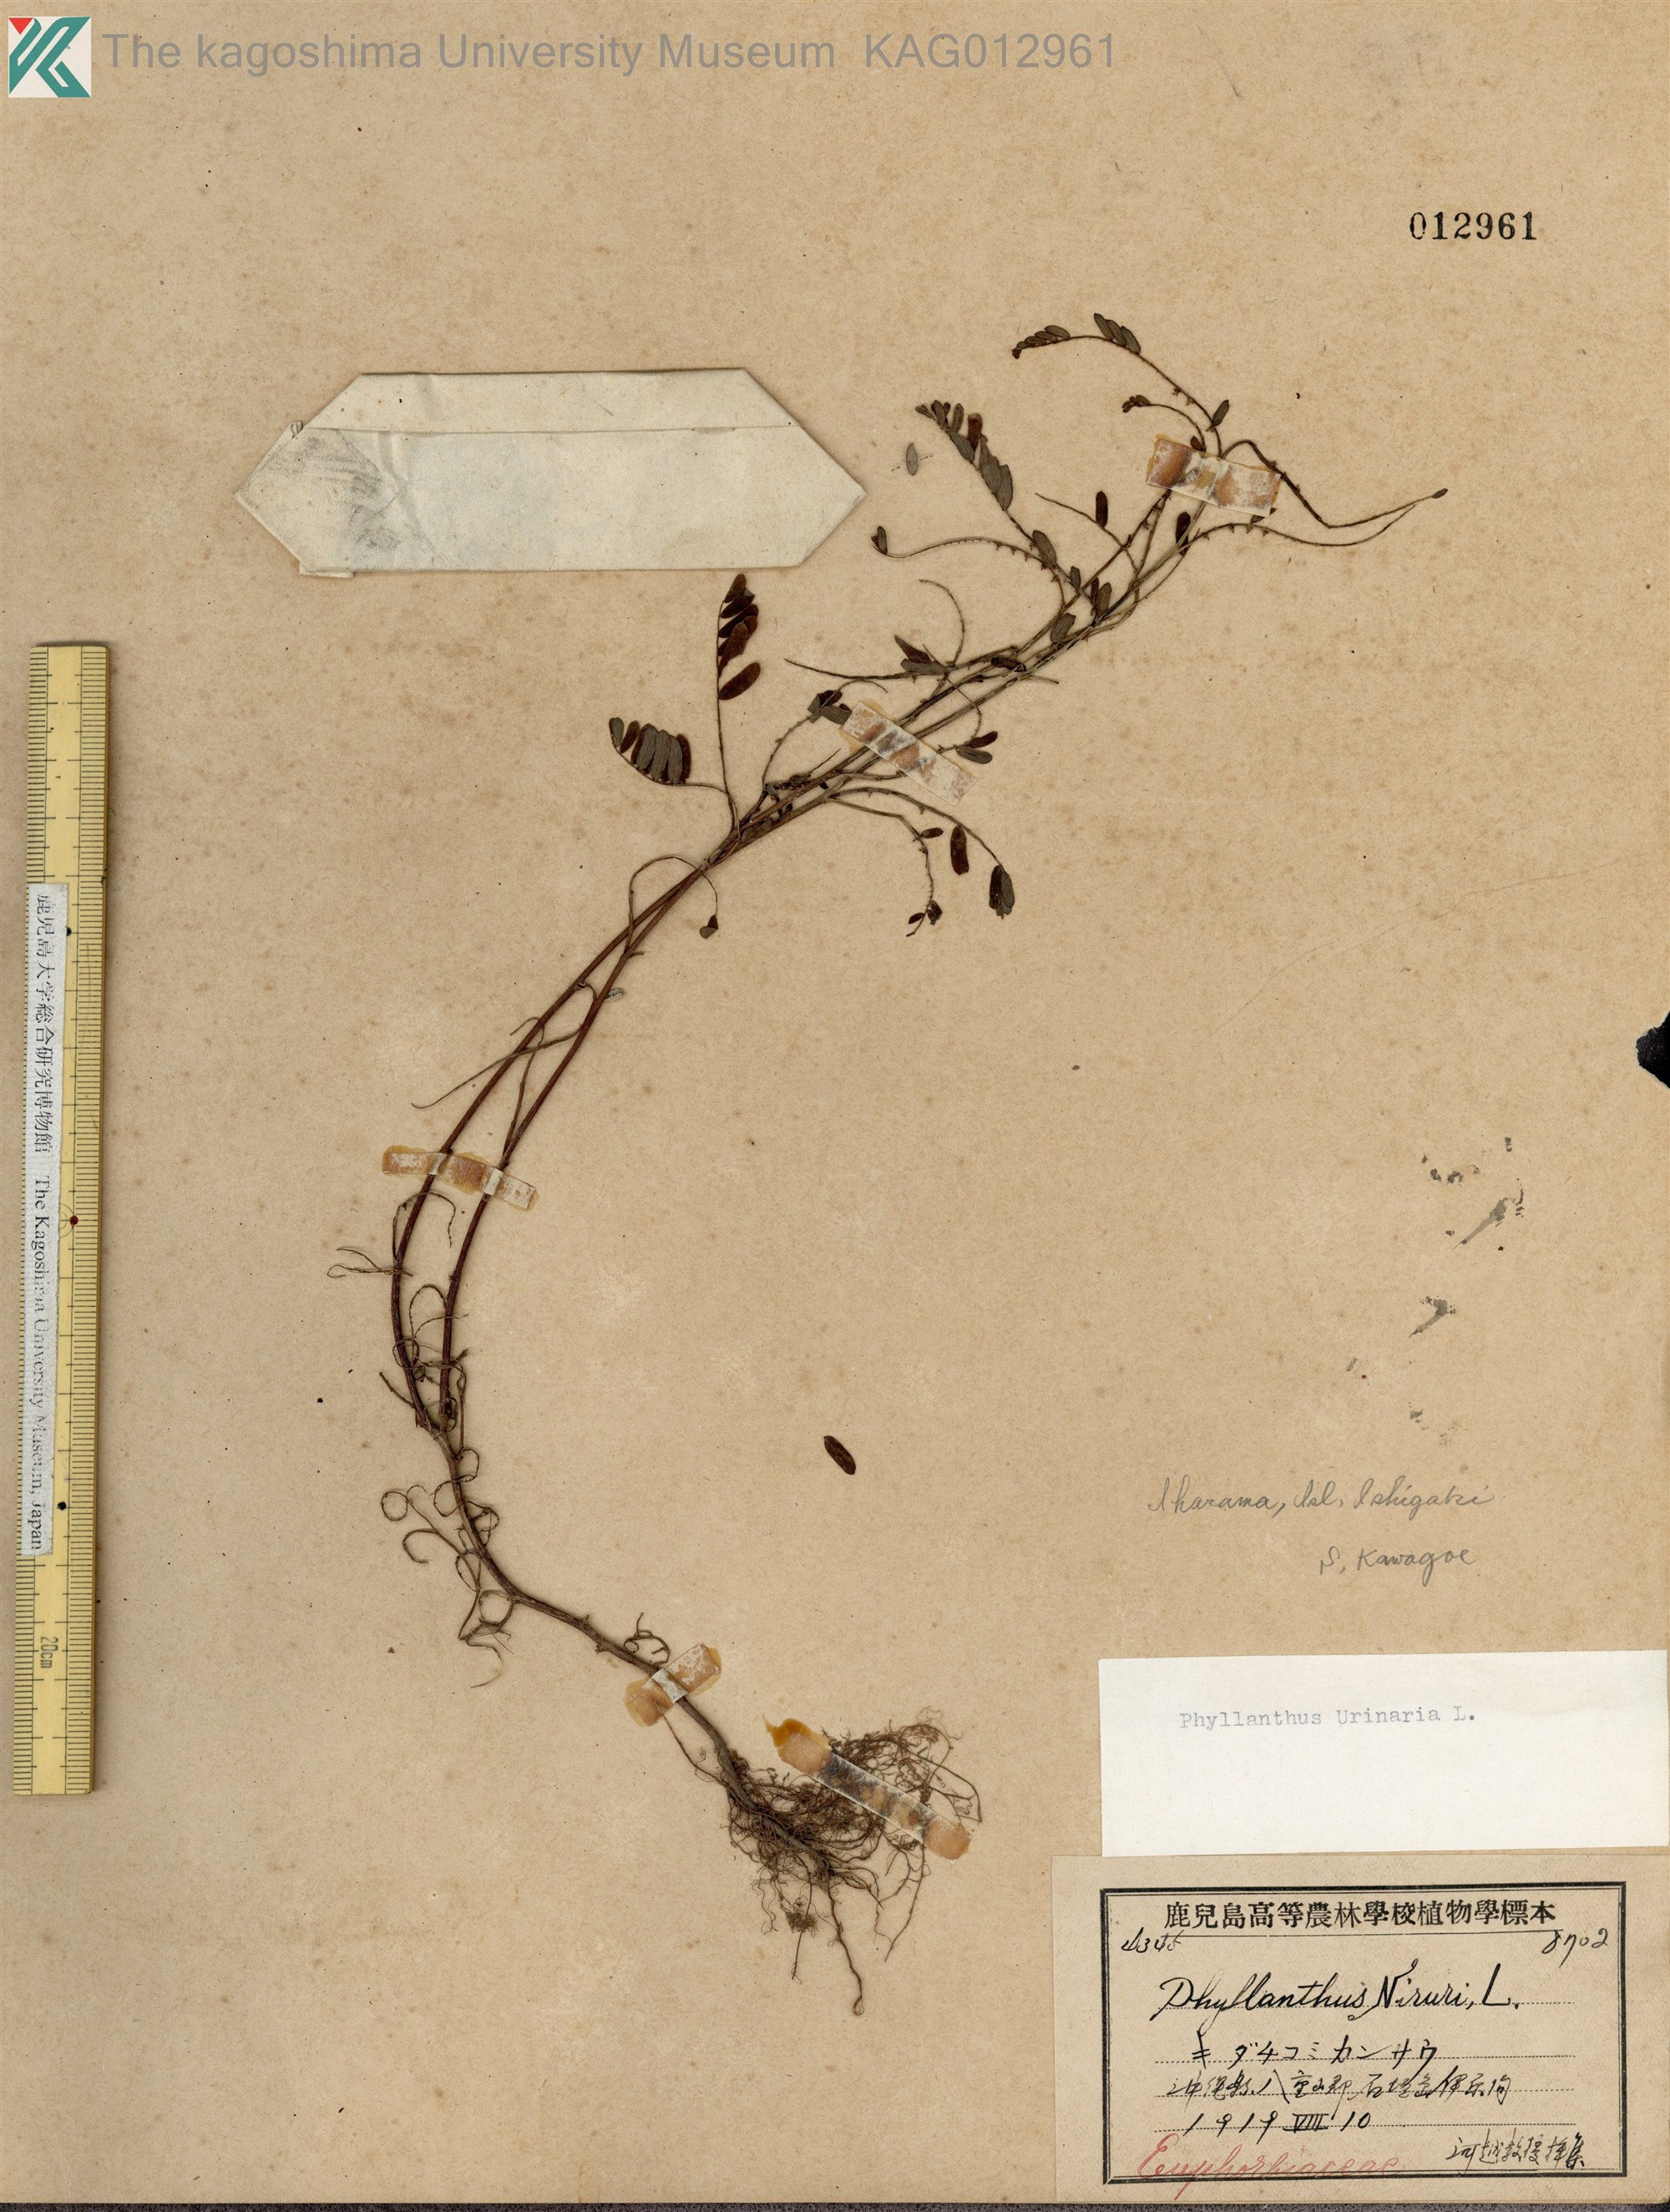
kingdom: Plantae
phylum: Tracheophyta
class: Magnoliopsida
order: Malpighiales
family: Phyllanthaceae
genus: Phyllanthus
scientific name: Phyllanthus urinaria
